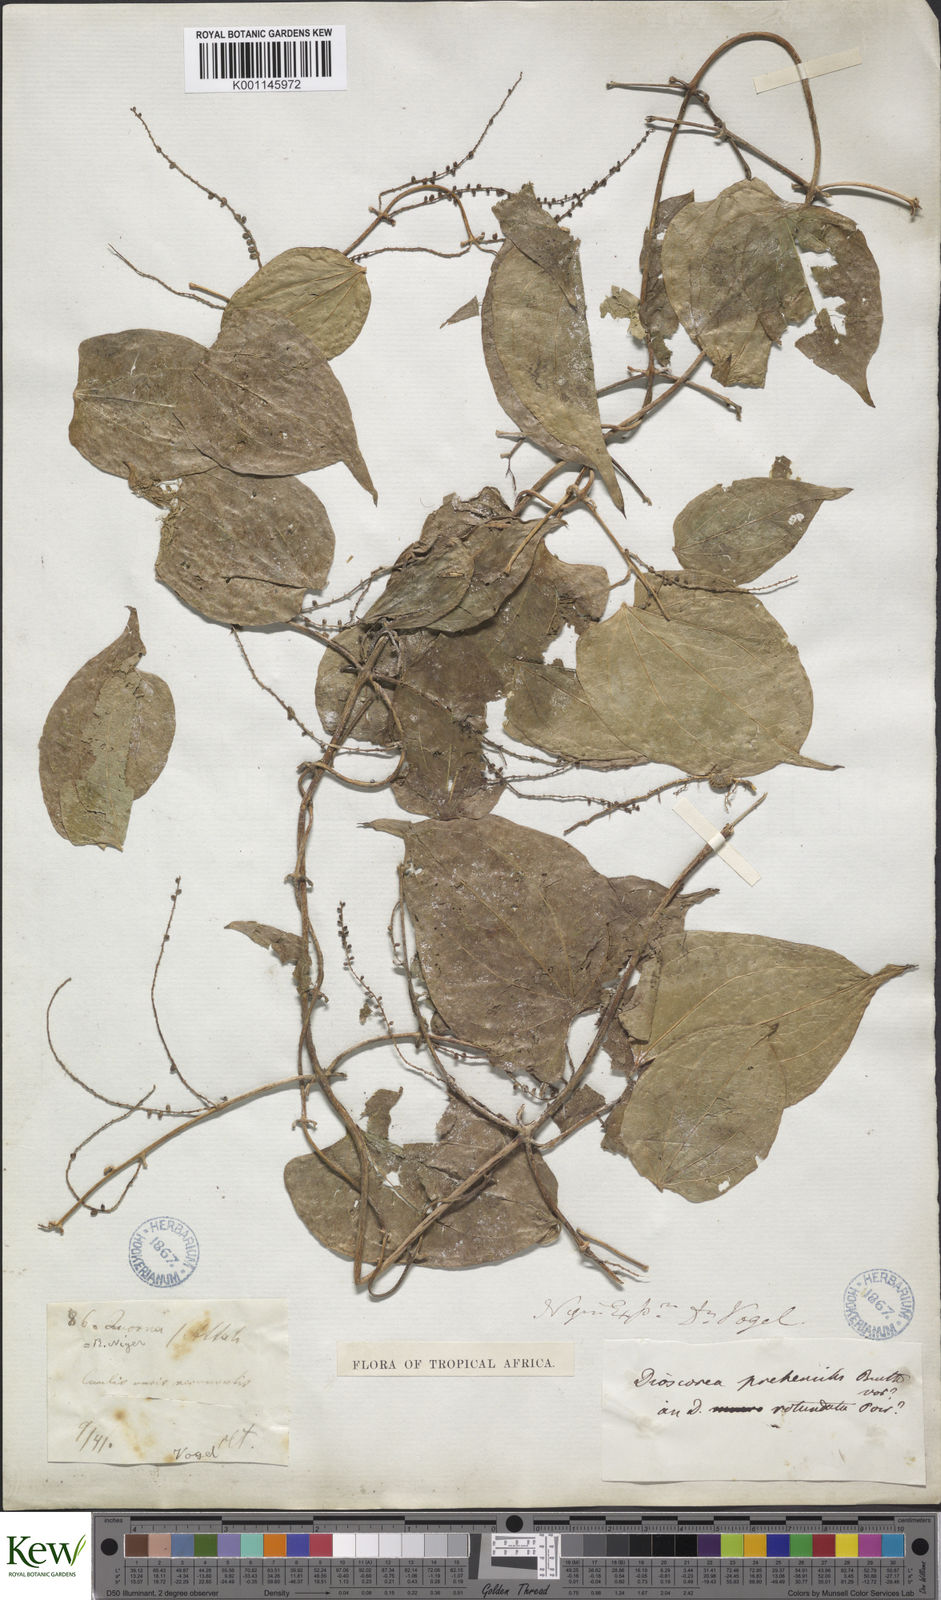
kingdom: Plantae
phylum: Tracheophyta
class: Liliopsida
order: Dioscoreales
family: Dioscoreaceae
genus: Dioscorea
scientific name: Dioscorea praehensilis
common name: Bush yam
